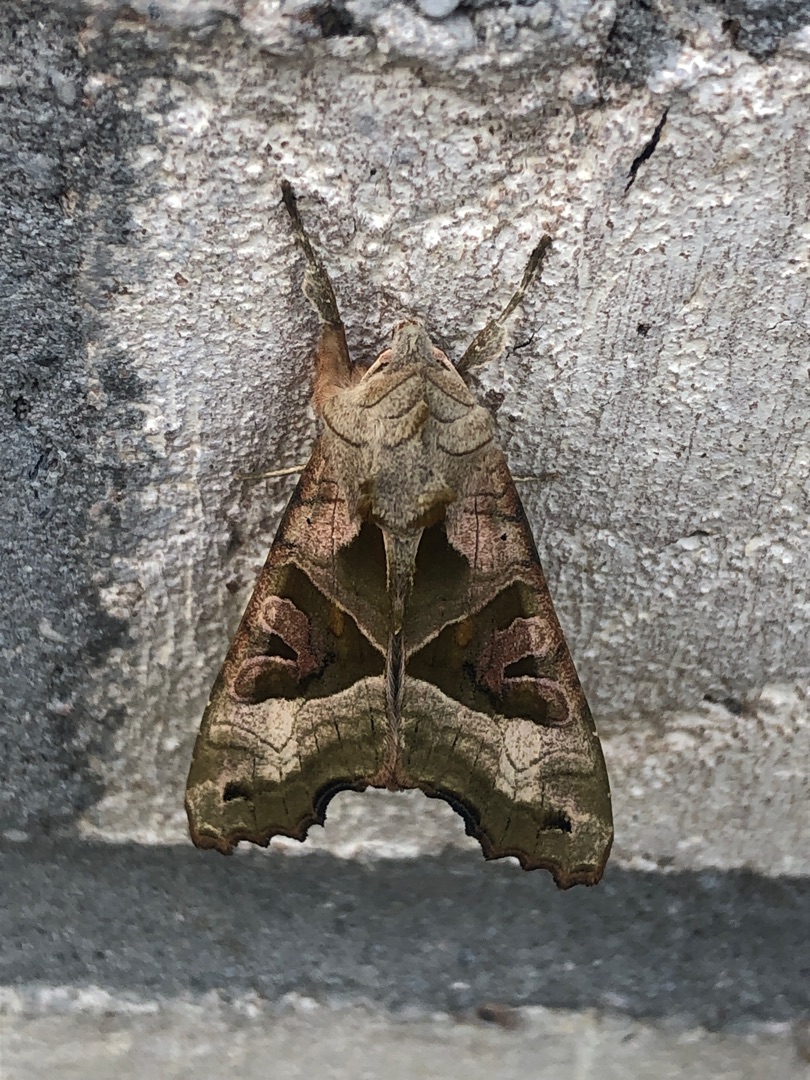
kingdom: Animalia
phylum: Arthropoda
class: Insecta
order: Lepidoptera
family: Noctuidae
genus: Phlogophora
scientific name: Phlogophora meticulosa
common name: Agatugle
